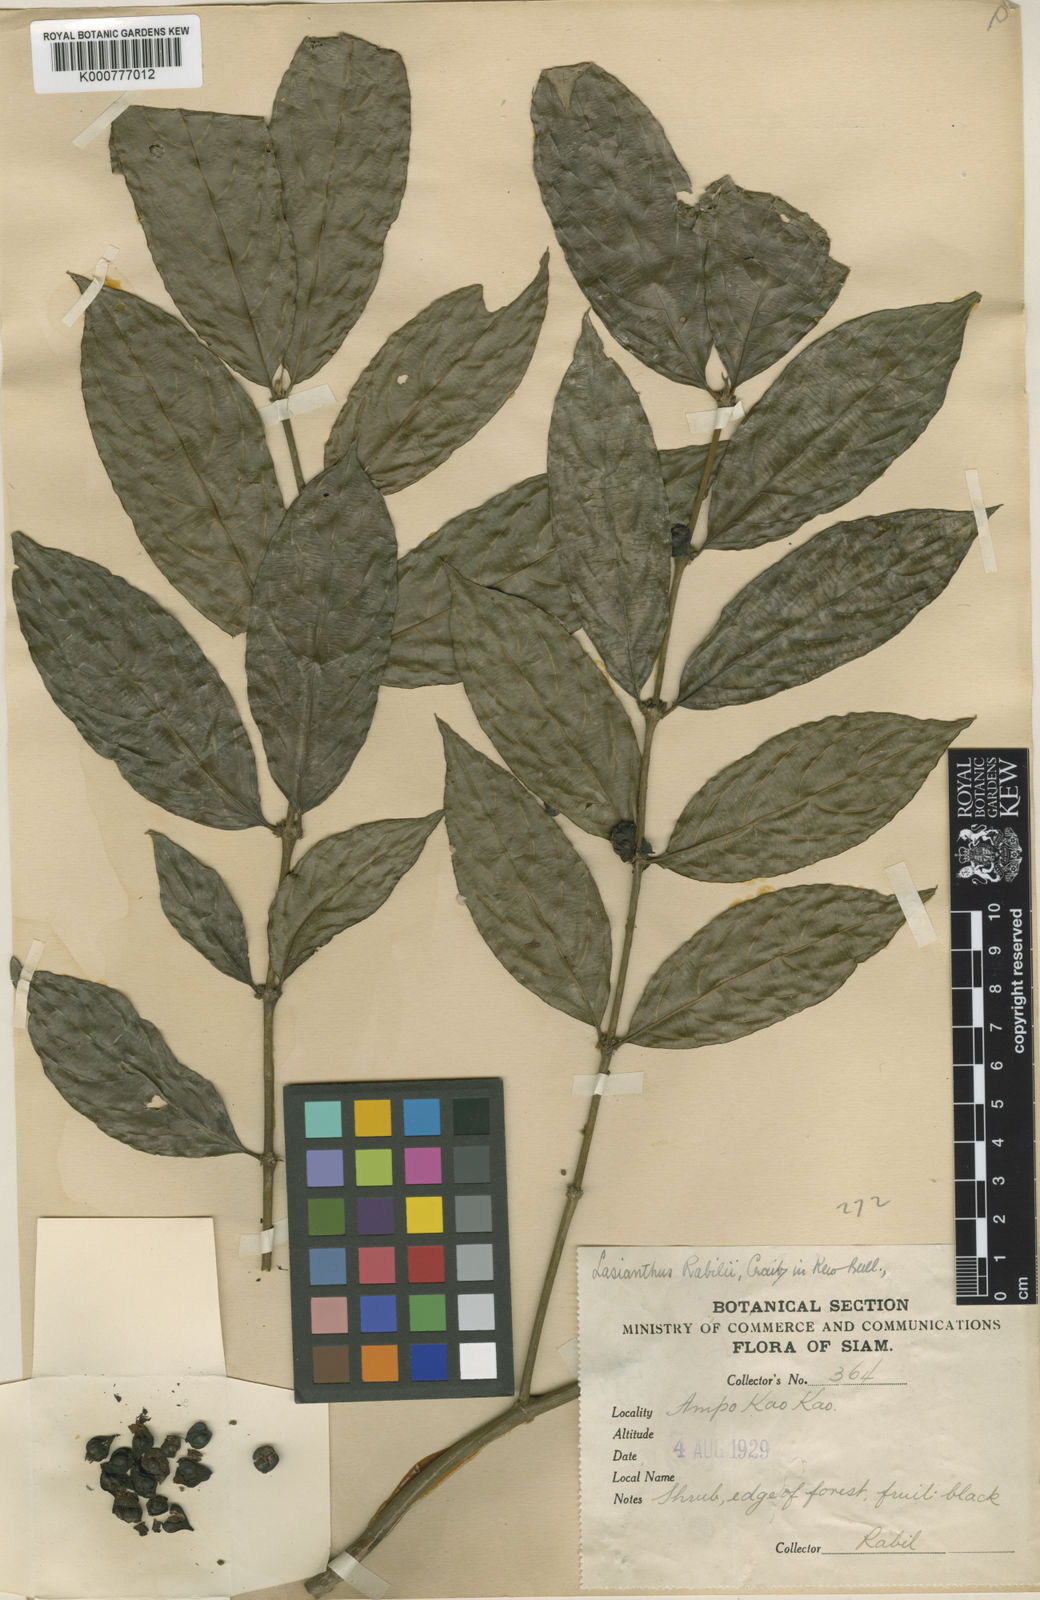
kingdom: Plantae
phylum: Tracheophyta
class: Magnoliopsida
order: Gentianales
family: Rubiaceae
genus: Lasianthus
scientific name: Lasianthus rabilii
